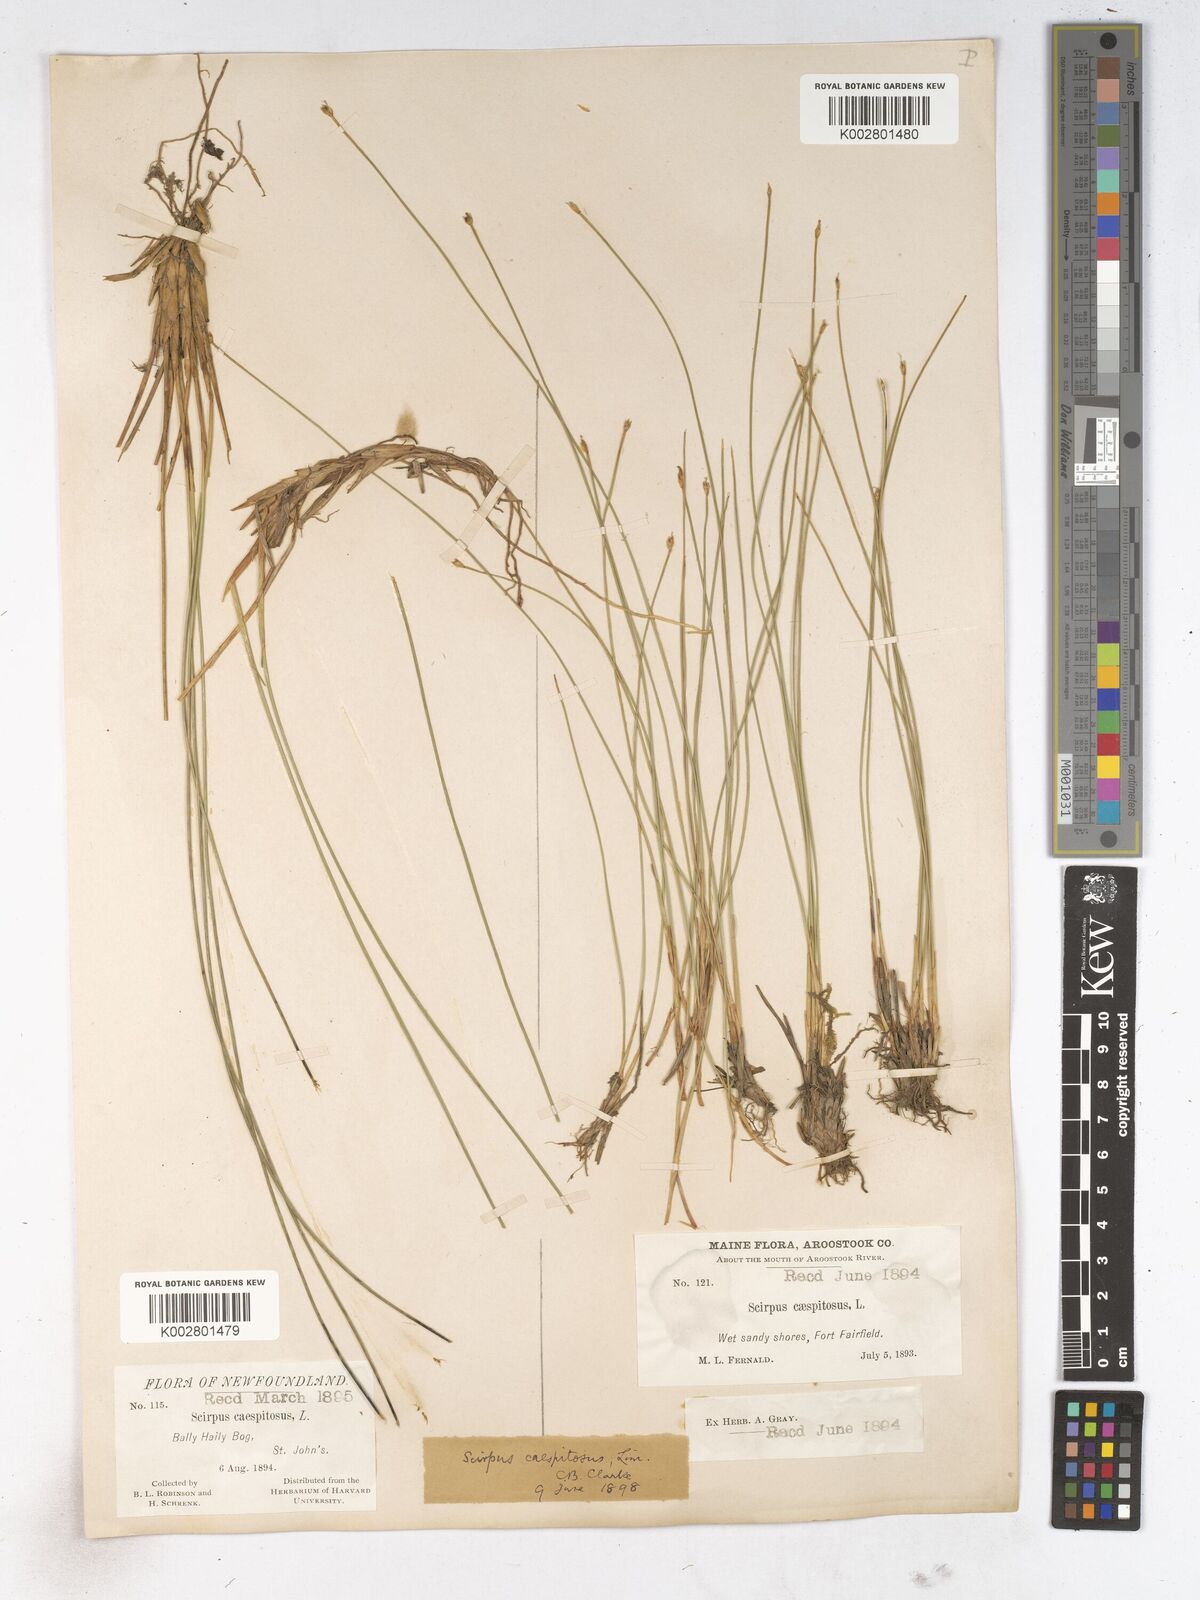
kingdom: Plantae
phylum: Tracheophyta
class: Liliopsida
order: Poales
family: Cyperaceae
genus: Trichophorum
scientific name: Trichophorum cespitosum
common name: Cespitose bulrush
